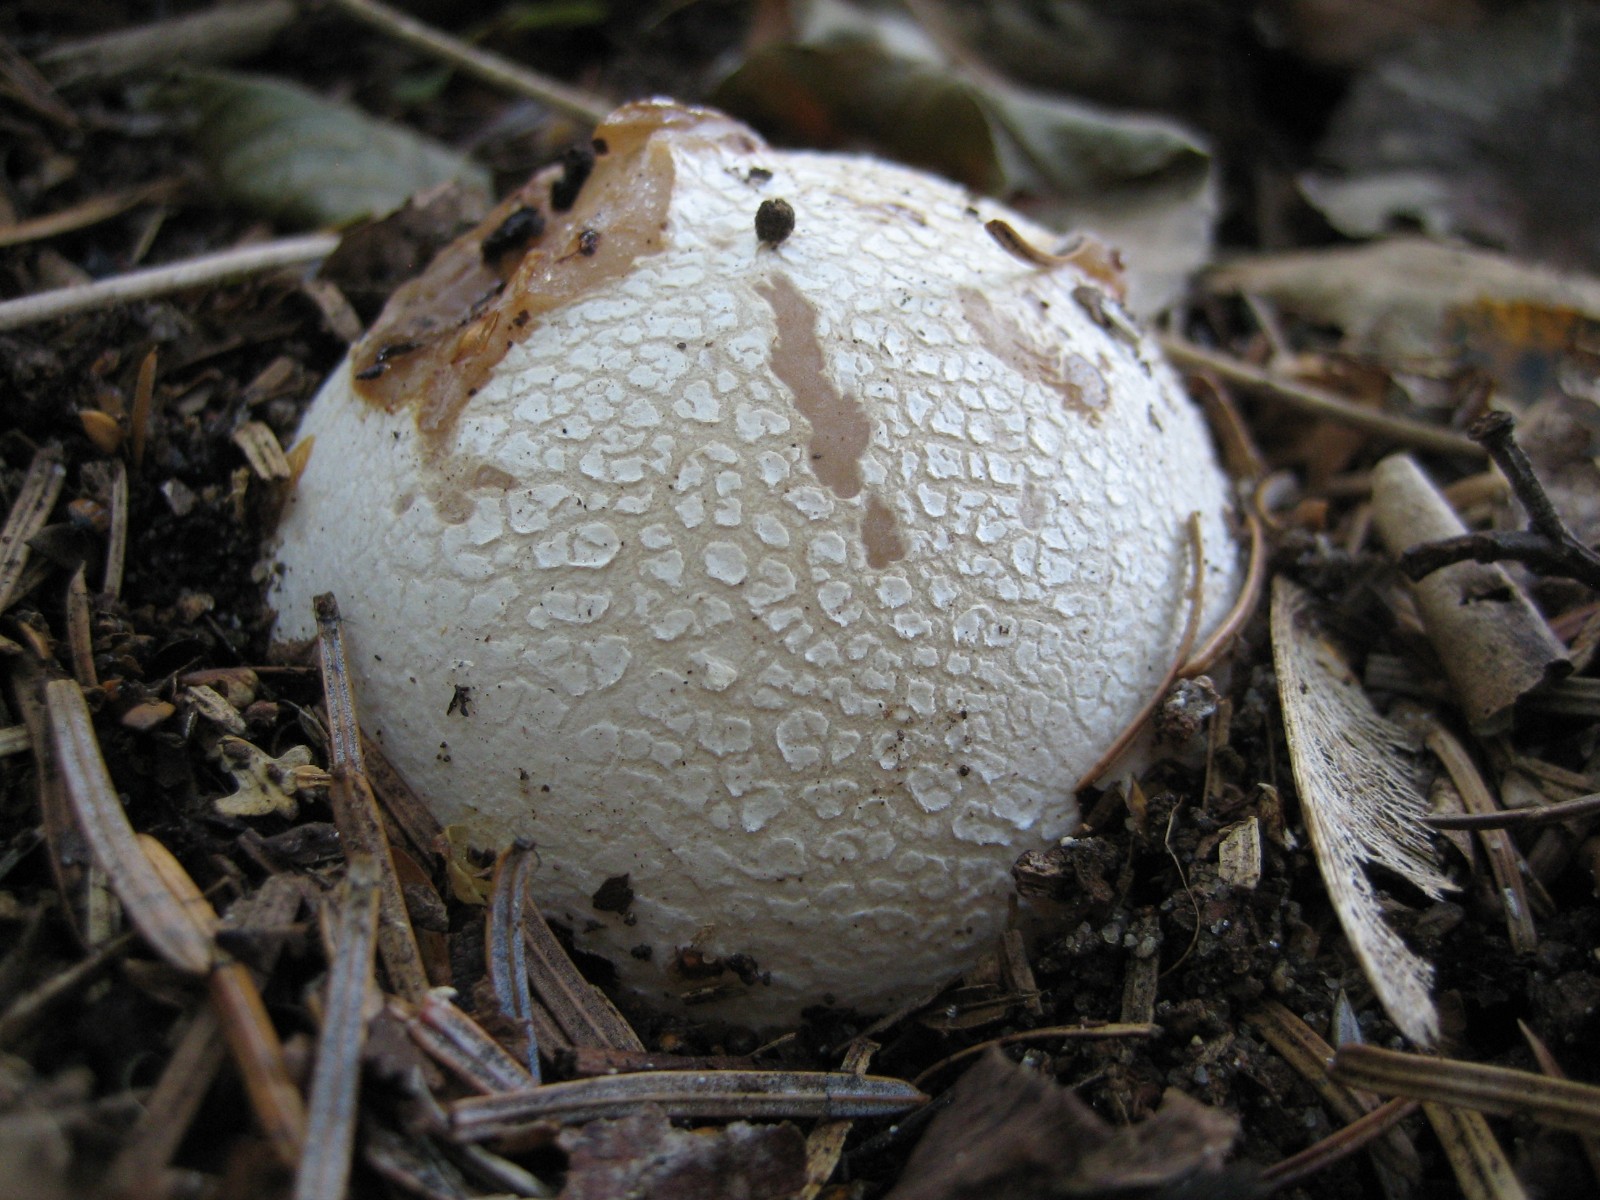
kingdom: Fungi
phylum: Basidiomycota
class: Agaricomycetes
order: Phallales
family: Phallaceae
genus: Phallus
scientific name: Phallus impudicus
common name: almindelig stinksvamp
